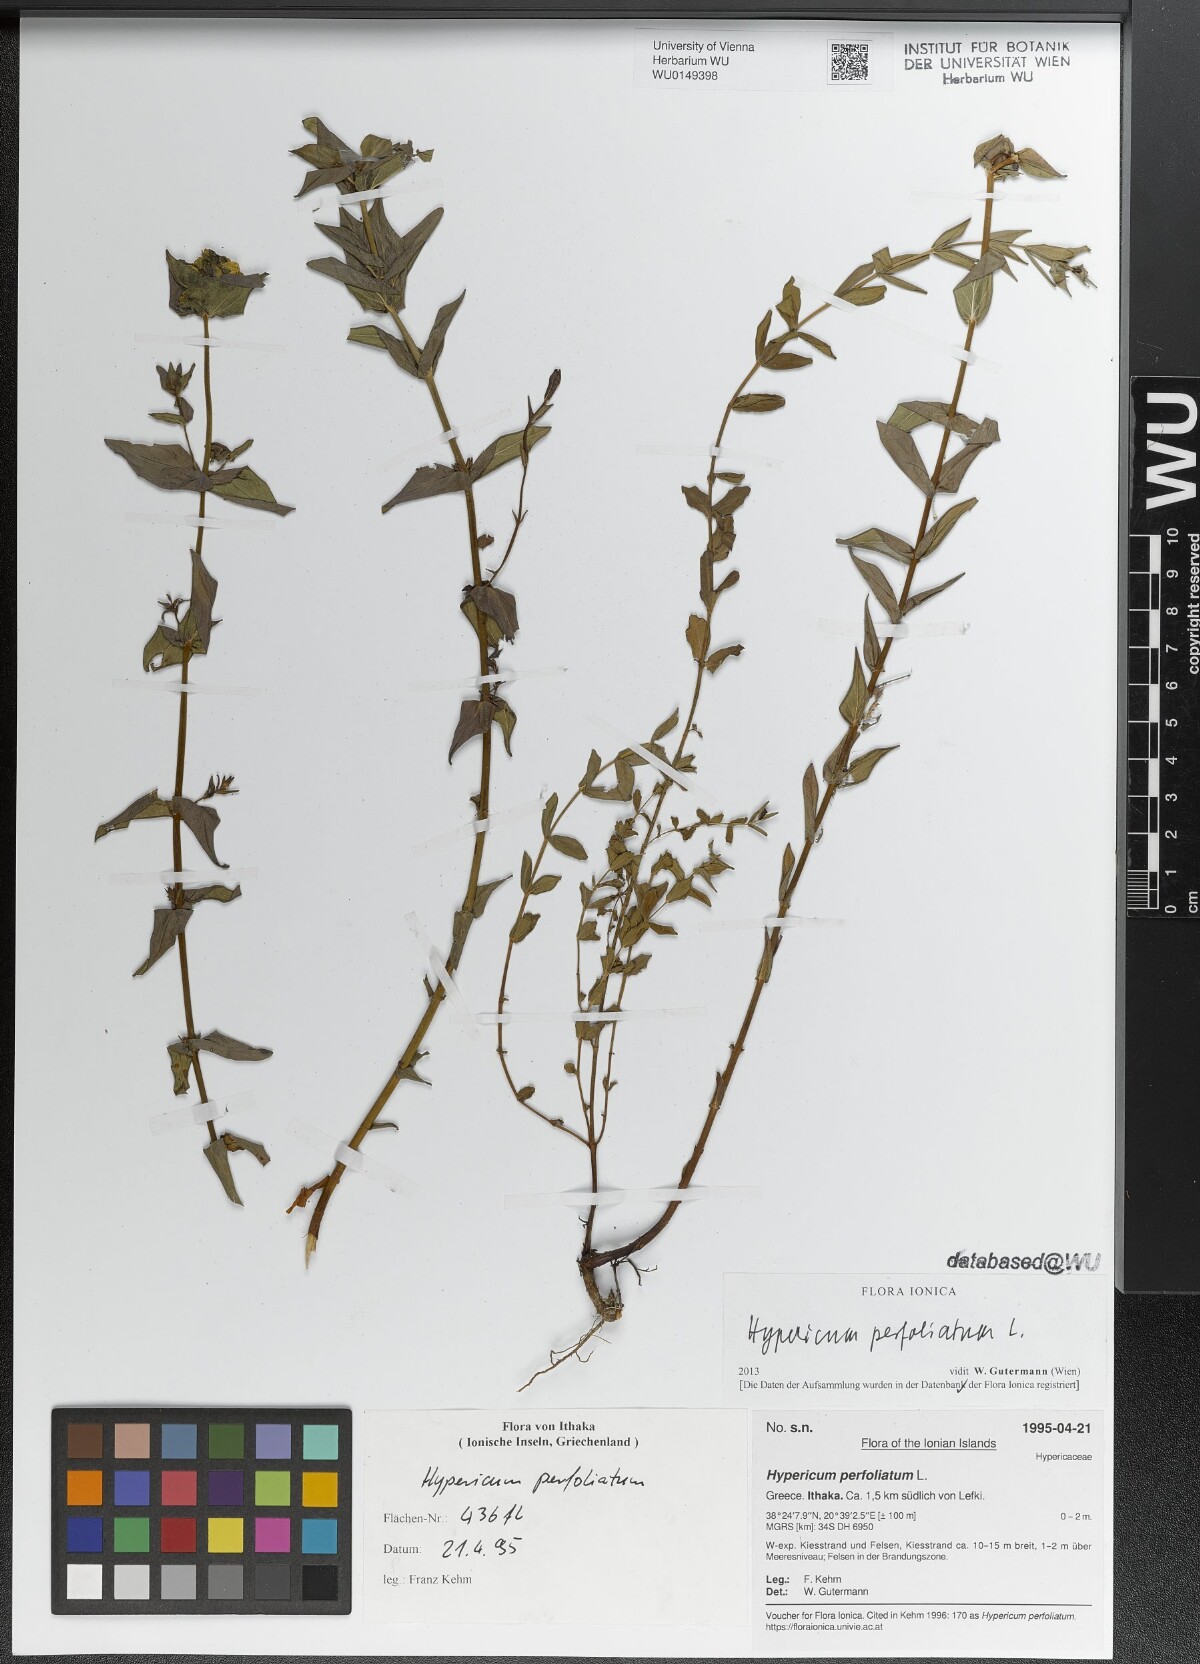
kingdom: Plantae
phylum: Tracheophyta
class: Magnoliopsida
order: Malpighiales
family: Hypericaceae
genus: Hypericum
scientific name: Hypericum perfoliatum
